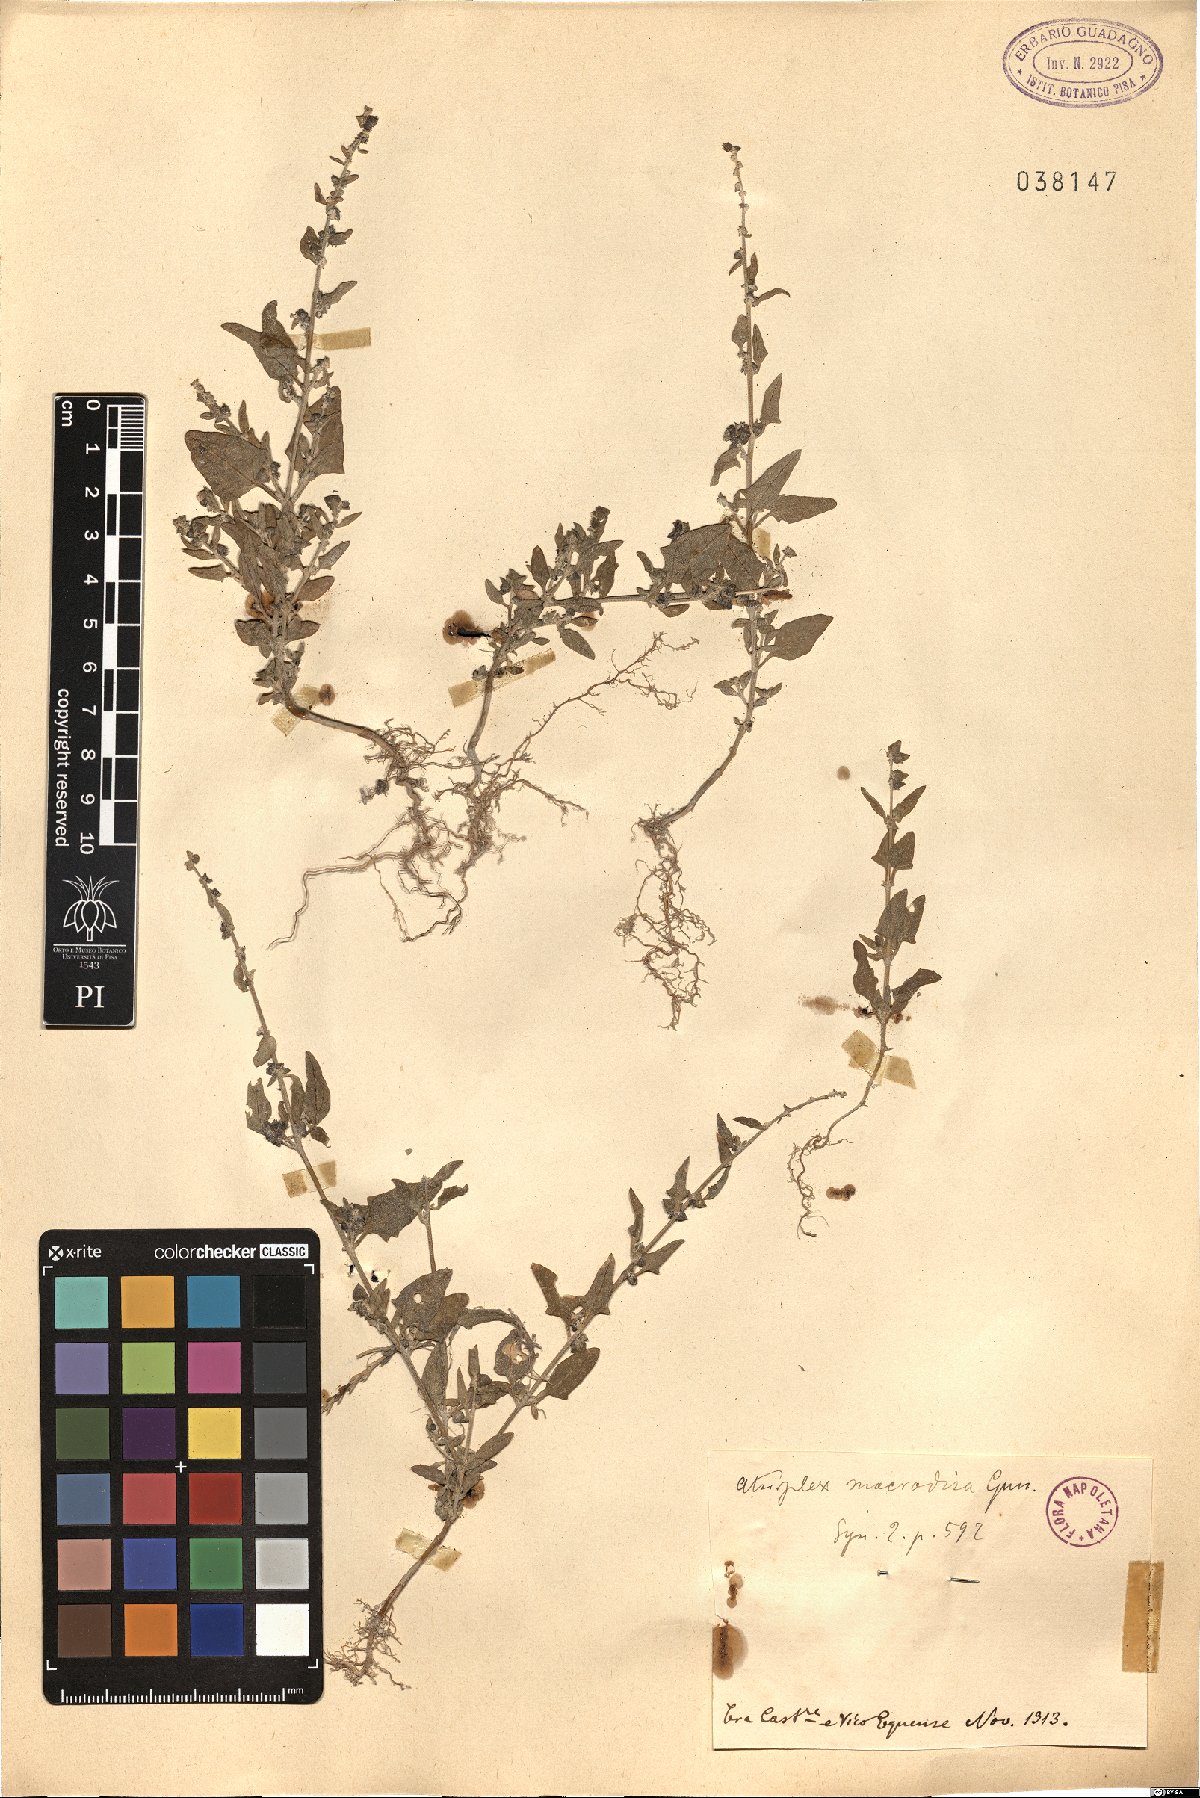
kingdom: Plantae
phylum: Tracheophyta
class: Magnoliopsida
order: Caryophyllales
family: Amaranthaceae
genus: Atriplex
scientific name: Atriplex patula
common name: Common orache
